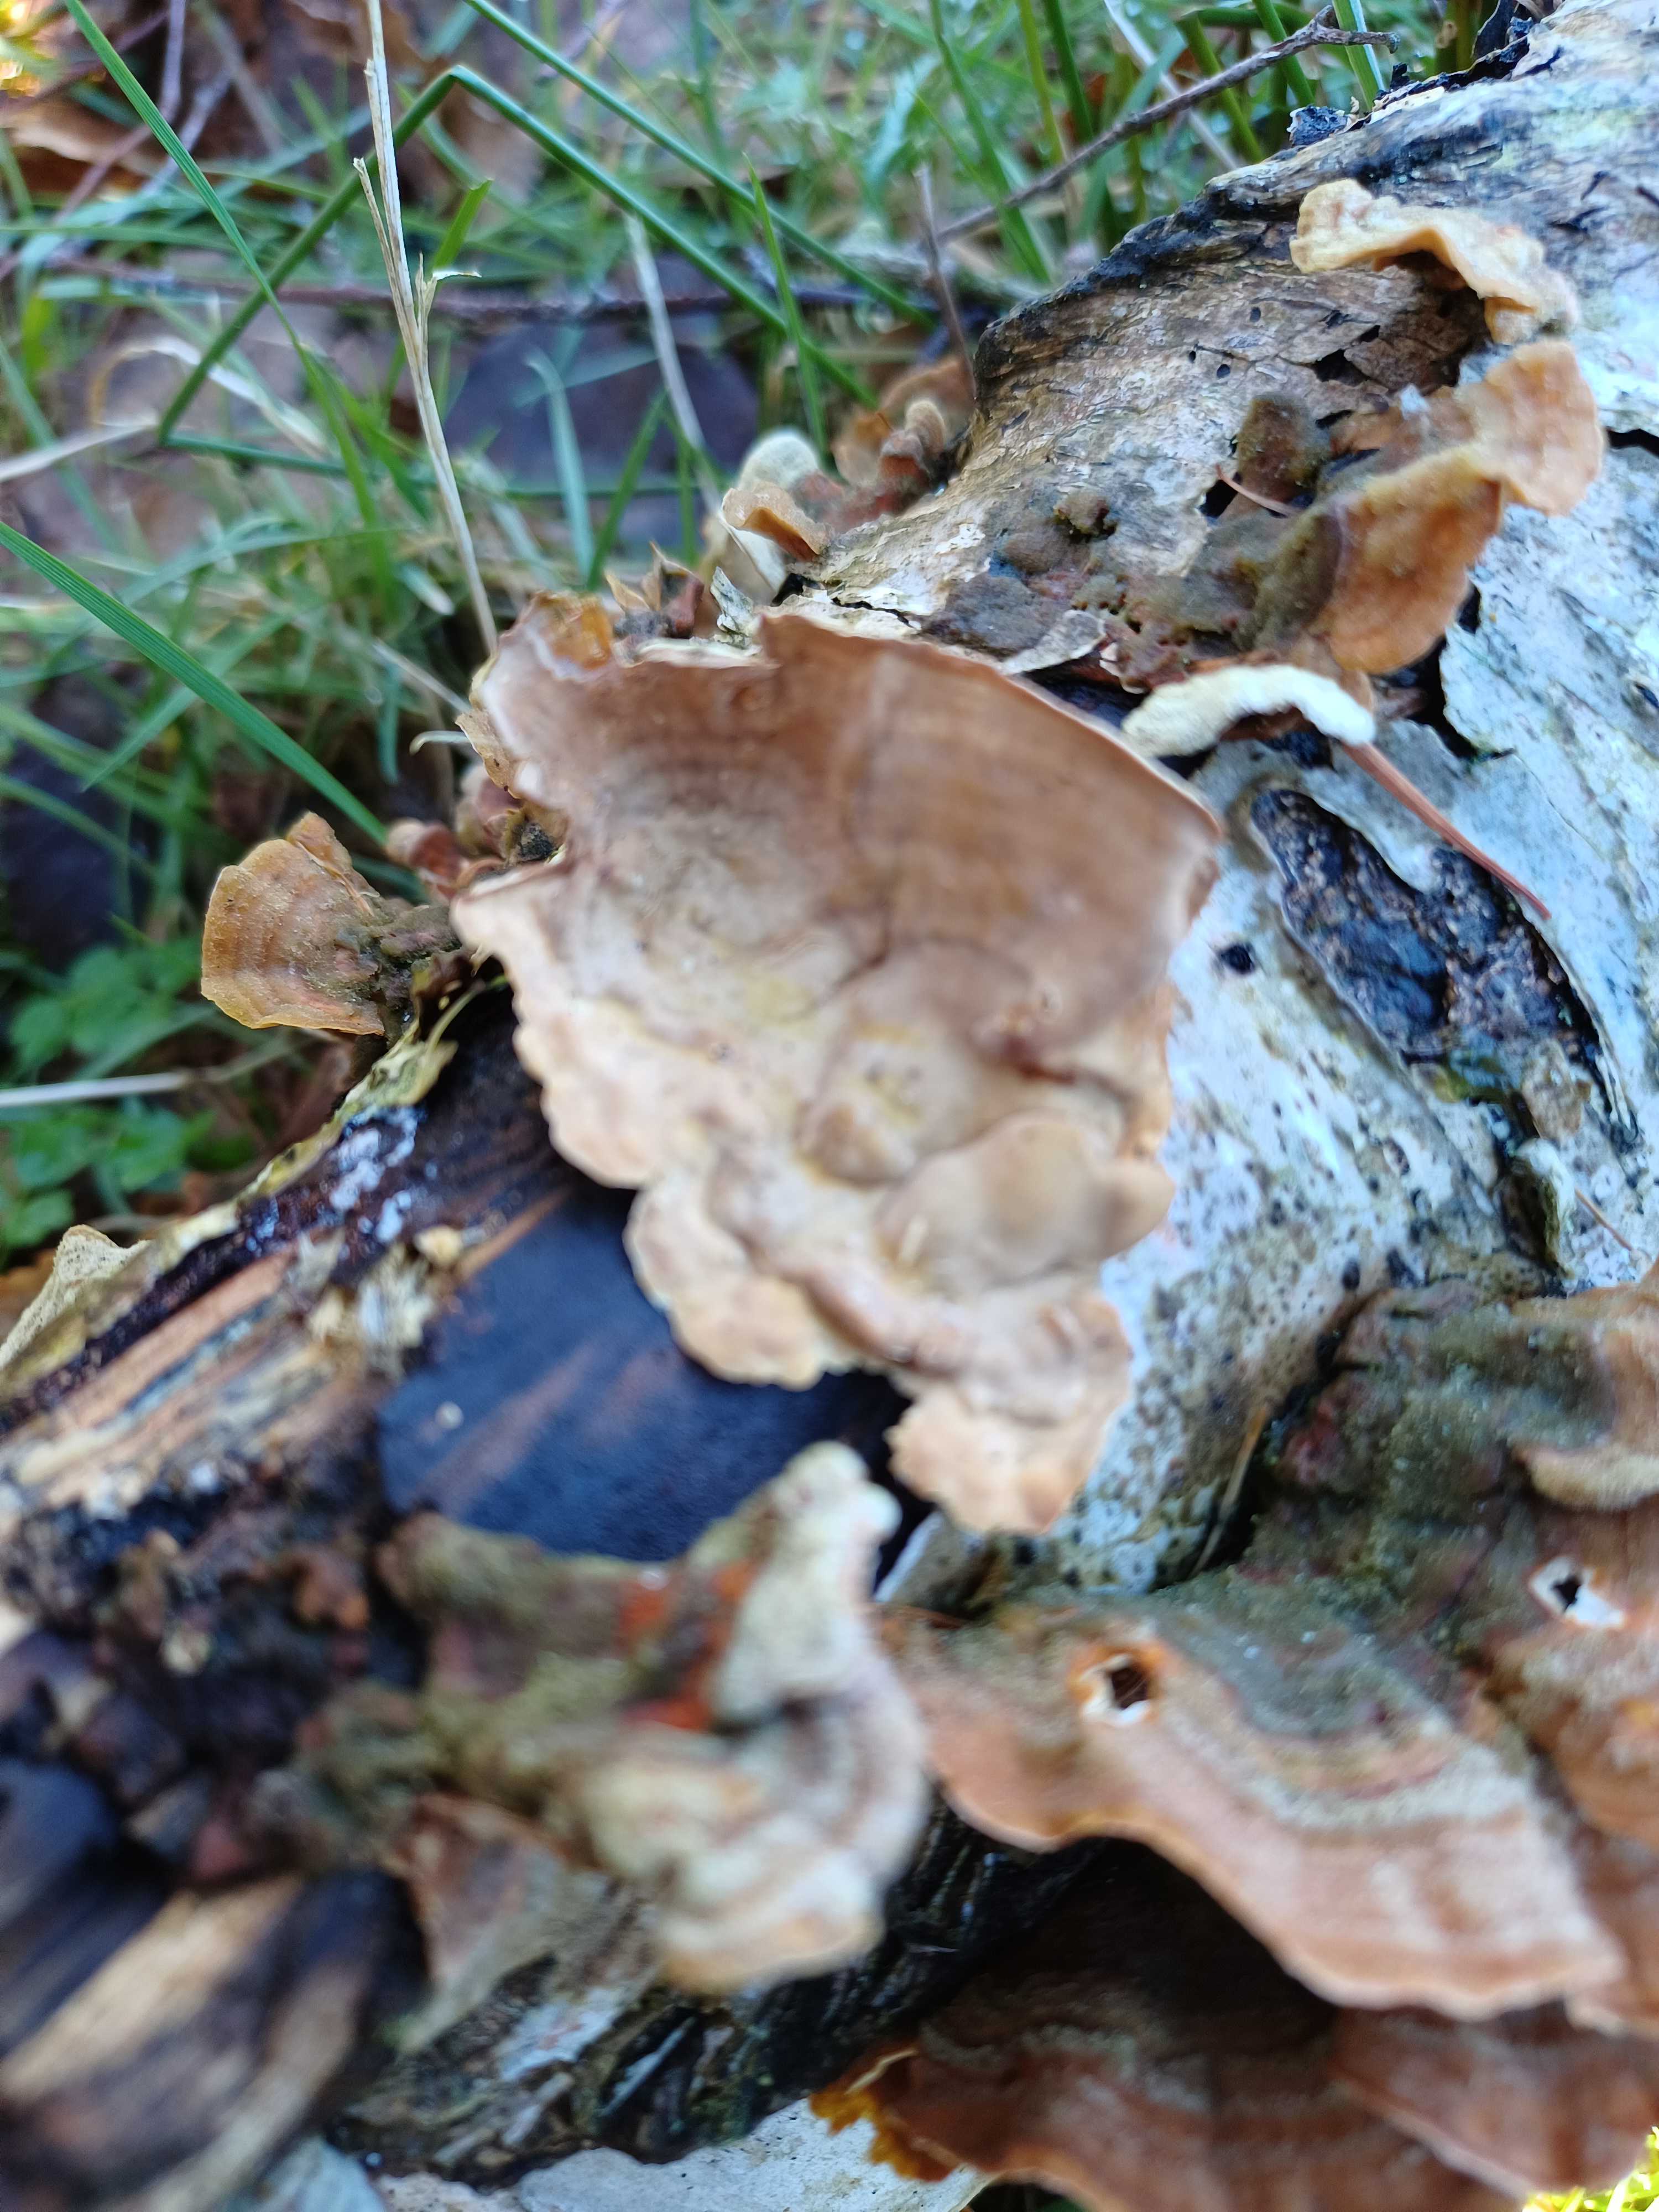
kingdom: Fungi
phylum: Basidiomycota
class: Agaricomycetes
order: Russulales
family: Stereaceae
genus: Stereum
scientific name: Stereum hirsutum
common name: håret lædersvamp
